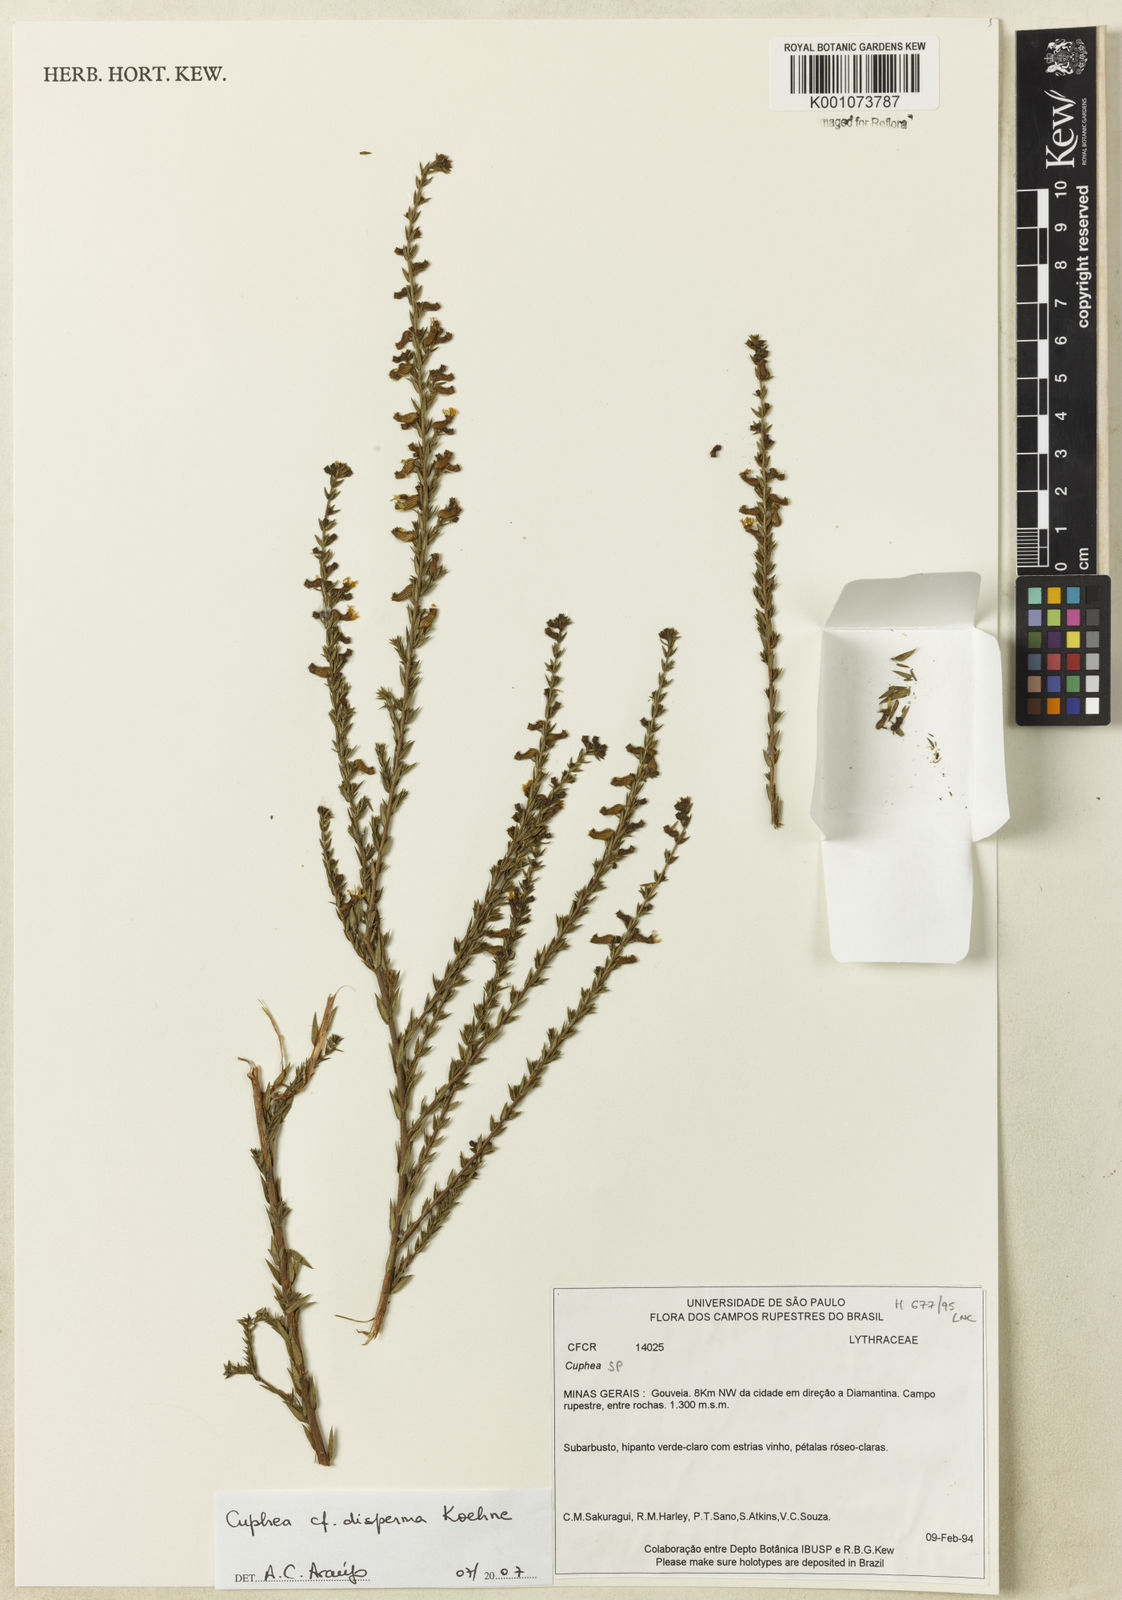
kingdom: Plantae
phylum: Tracheophyta
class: Magnoliopsida
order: Myrtales
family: Lythraceae
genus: Cuphea
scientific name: Cuphea disperma
